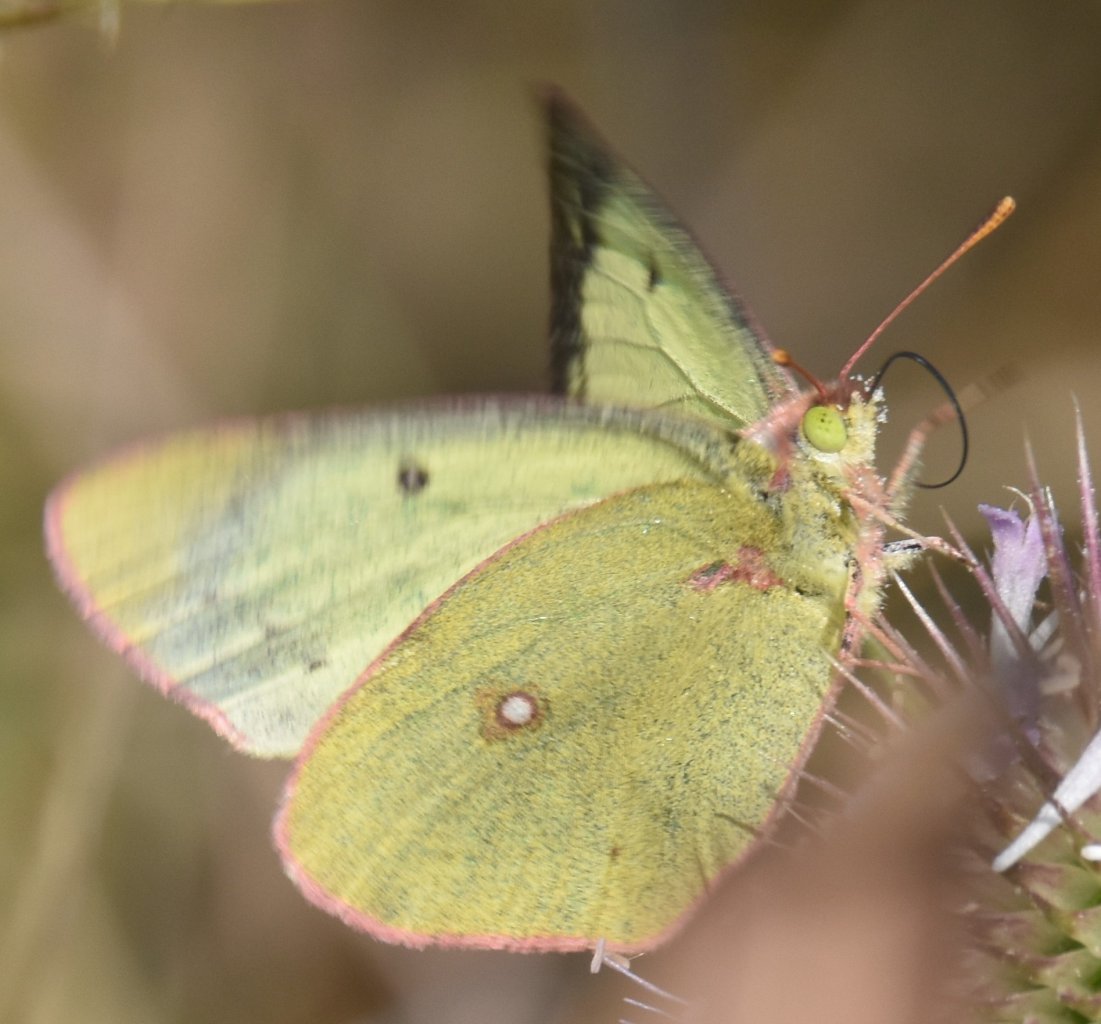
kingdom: Animalia
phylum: Arthropoda
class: Insecta
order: Lepidoptera
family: Pieridae
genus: Colias
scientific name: Colias philodice
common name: Clouded Sulphur
